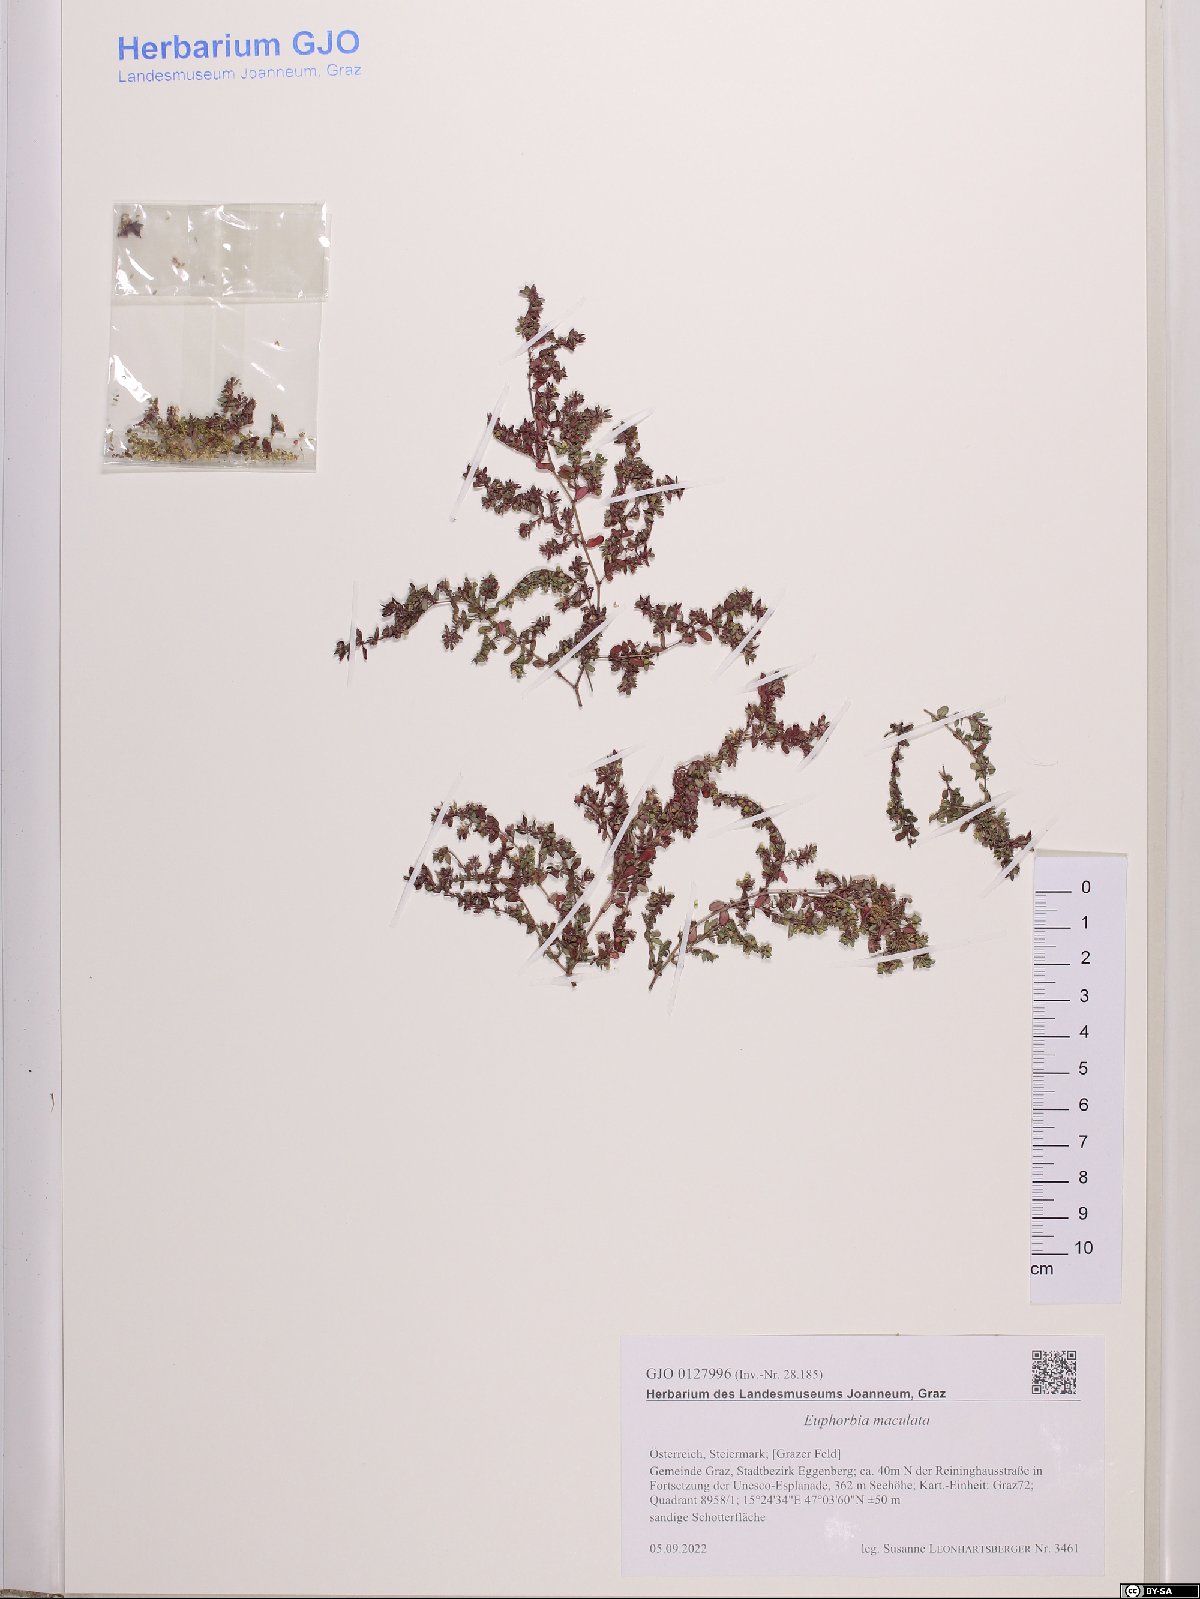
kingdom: Plantae
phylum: Tracheophyta
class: Magnoliopsida
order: Malpighiales
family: Euphorbiaceae
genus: Euphorbia
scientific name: Euphorbia maculata
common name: Spotted spurge
